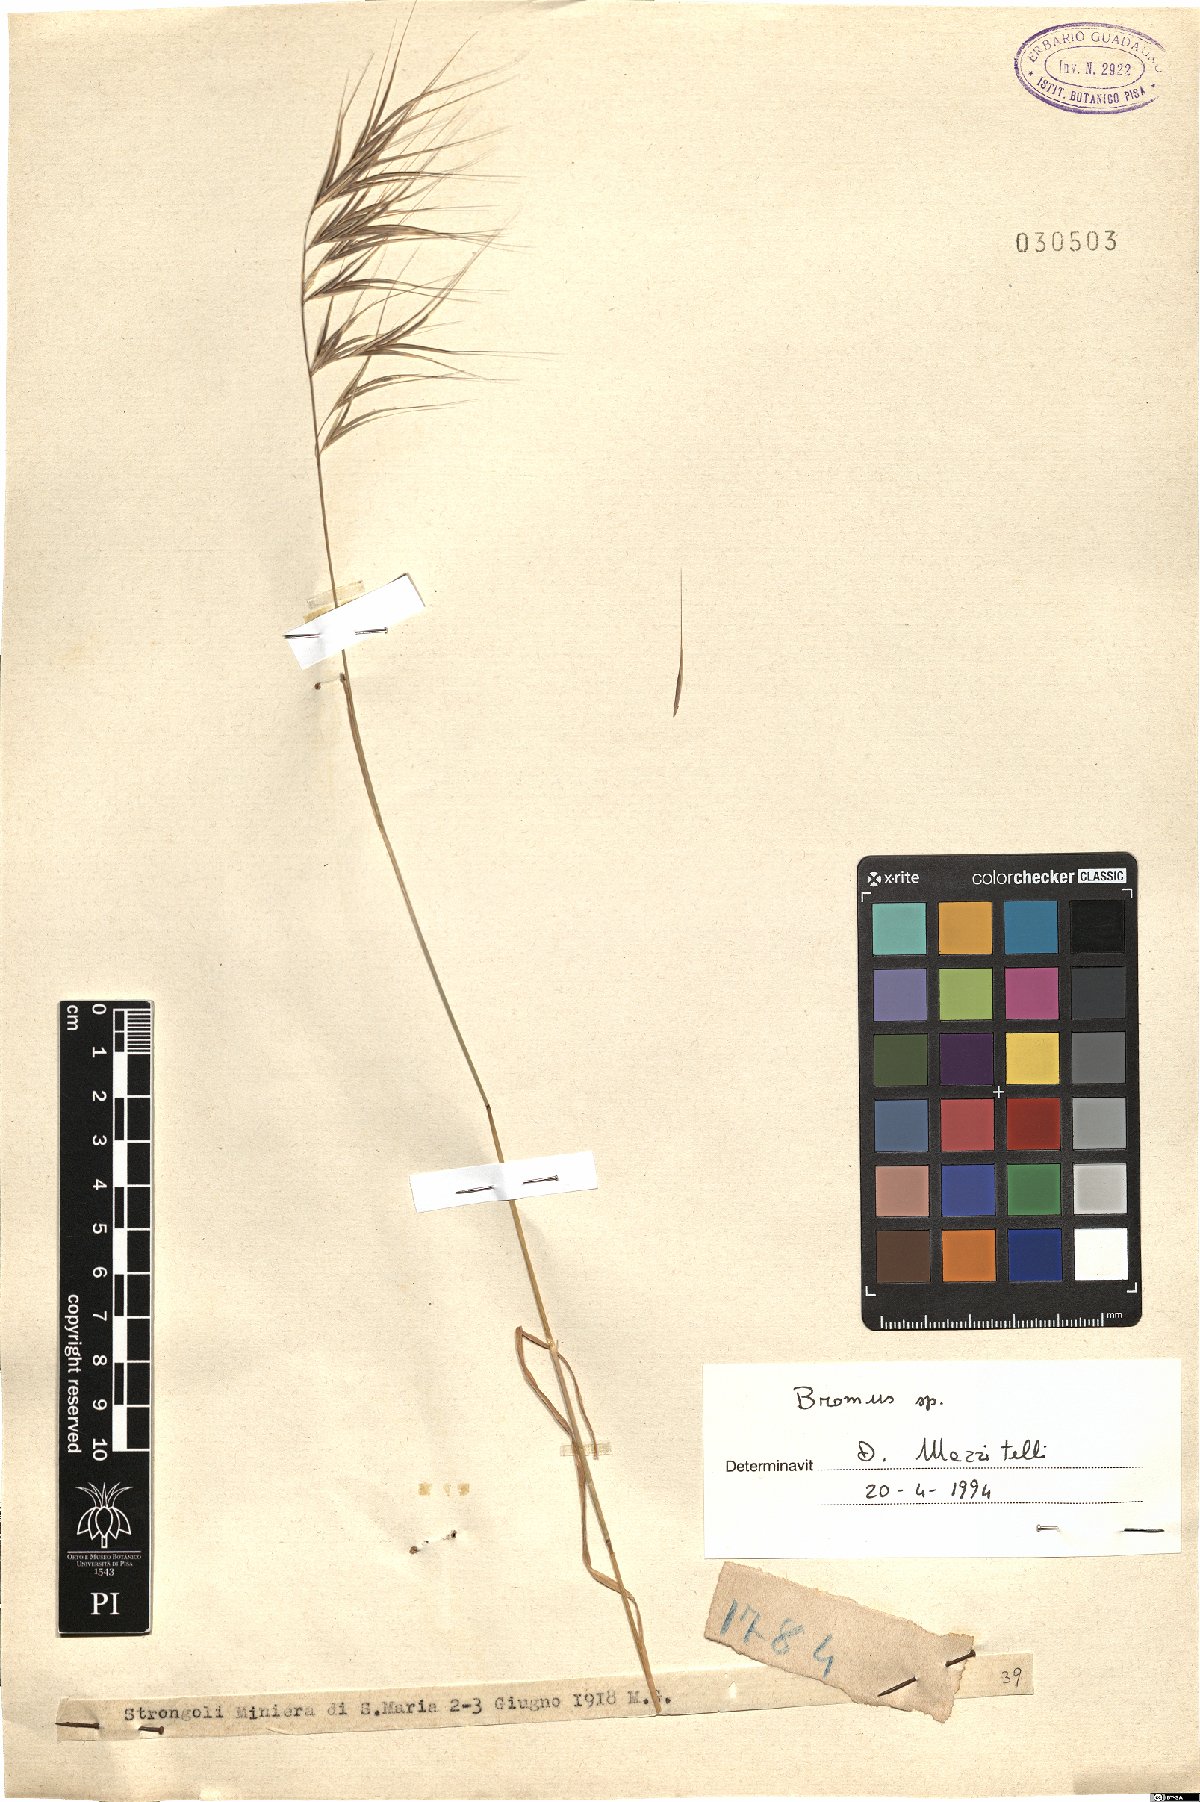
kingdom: Plantae
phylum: Tracheophyta
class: Liliopsida
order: Poales
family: Poaceae
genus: Bromus
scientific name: Bromus
